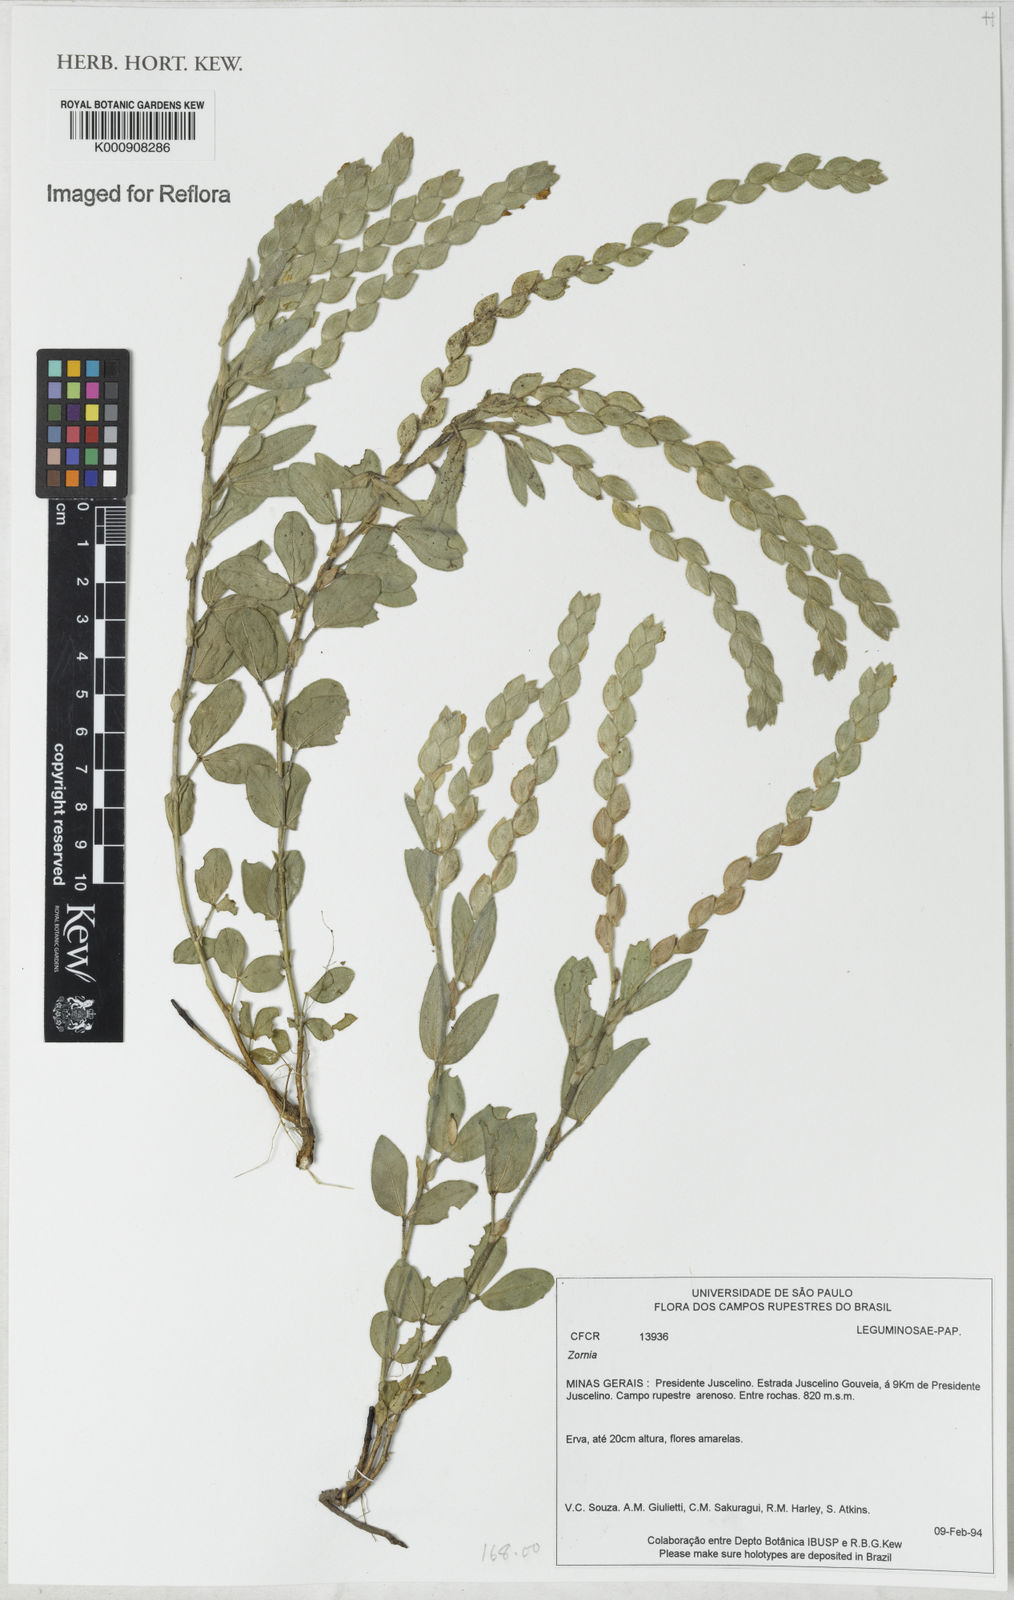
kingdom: Plantae
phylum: Tracheophyta
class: Magnoliopsida
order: Fabales
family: Fabaceae
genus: Zornia
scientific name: Zornia
